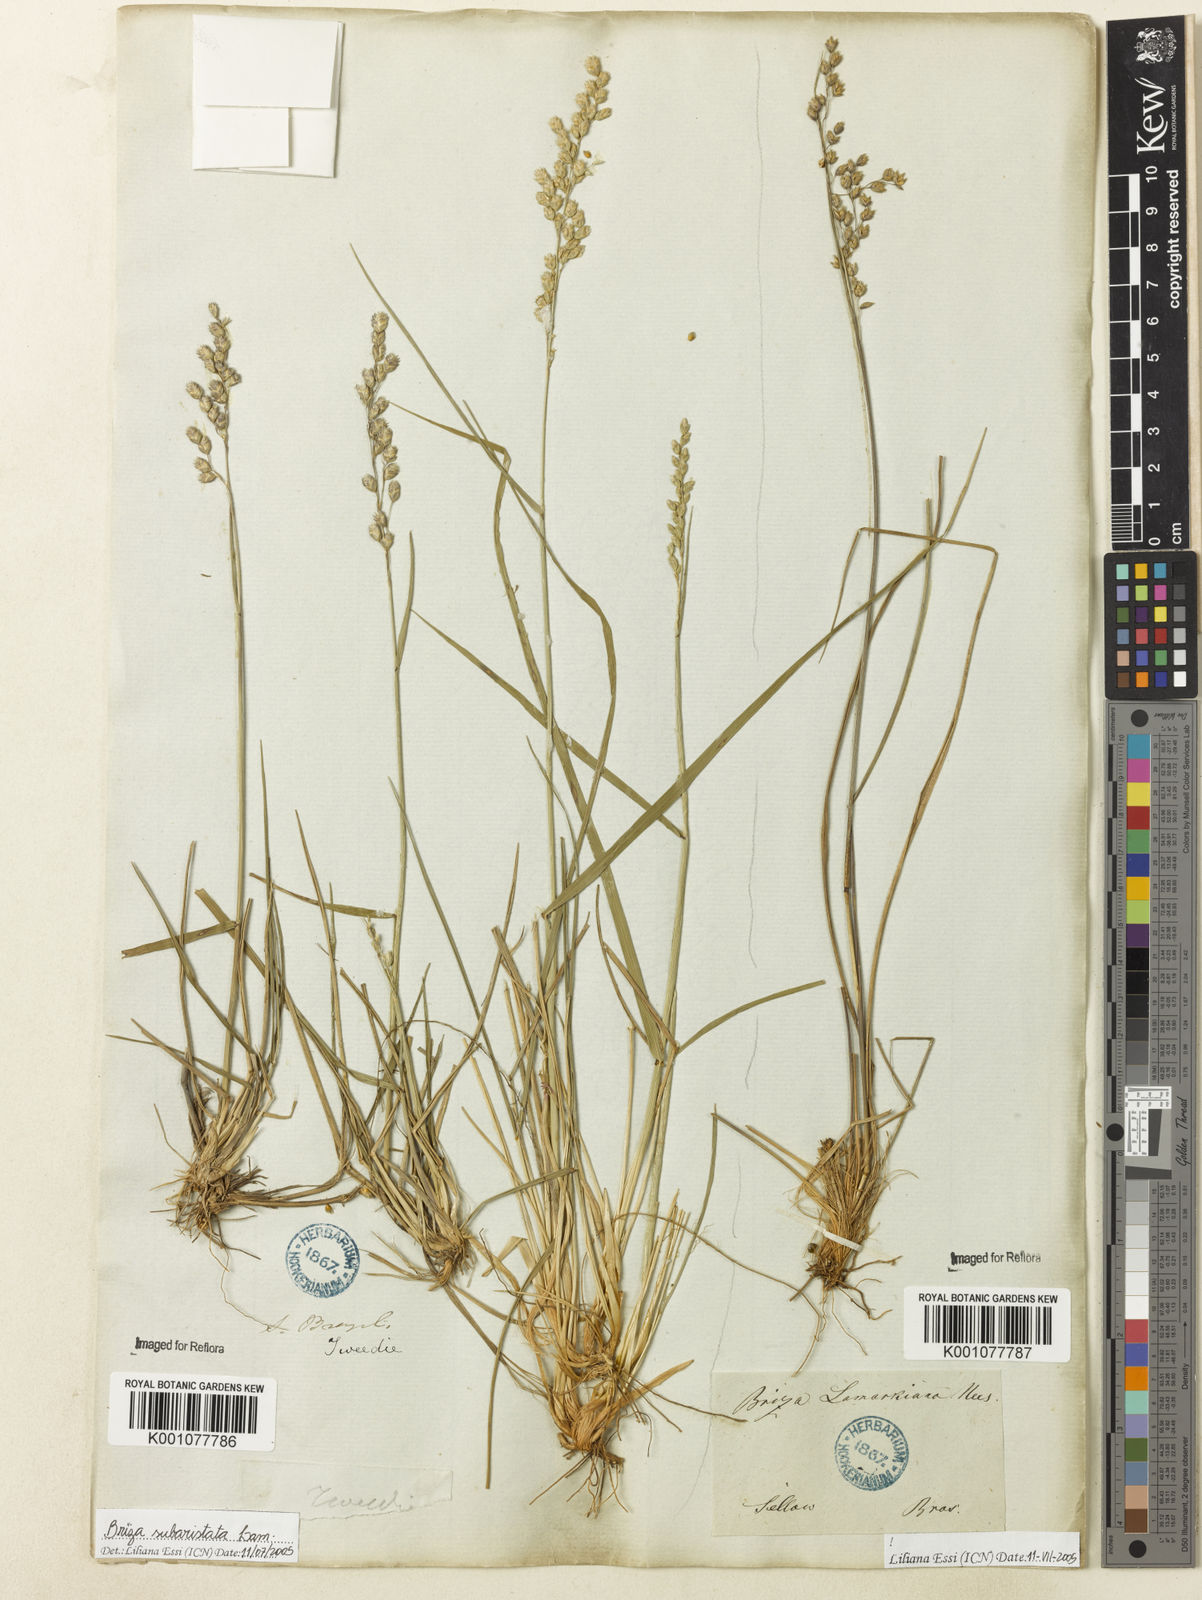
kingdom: Plantae
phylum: Tracheophyta
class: Liliopsida
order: Poales
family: Poaceae
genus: Chascolytrum
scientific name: Chascolytrum lamarckianum
